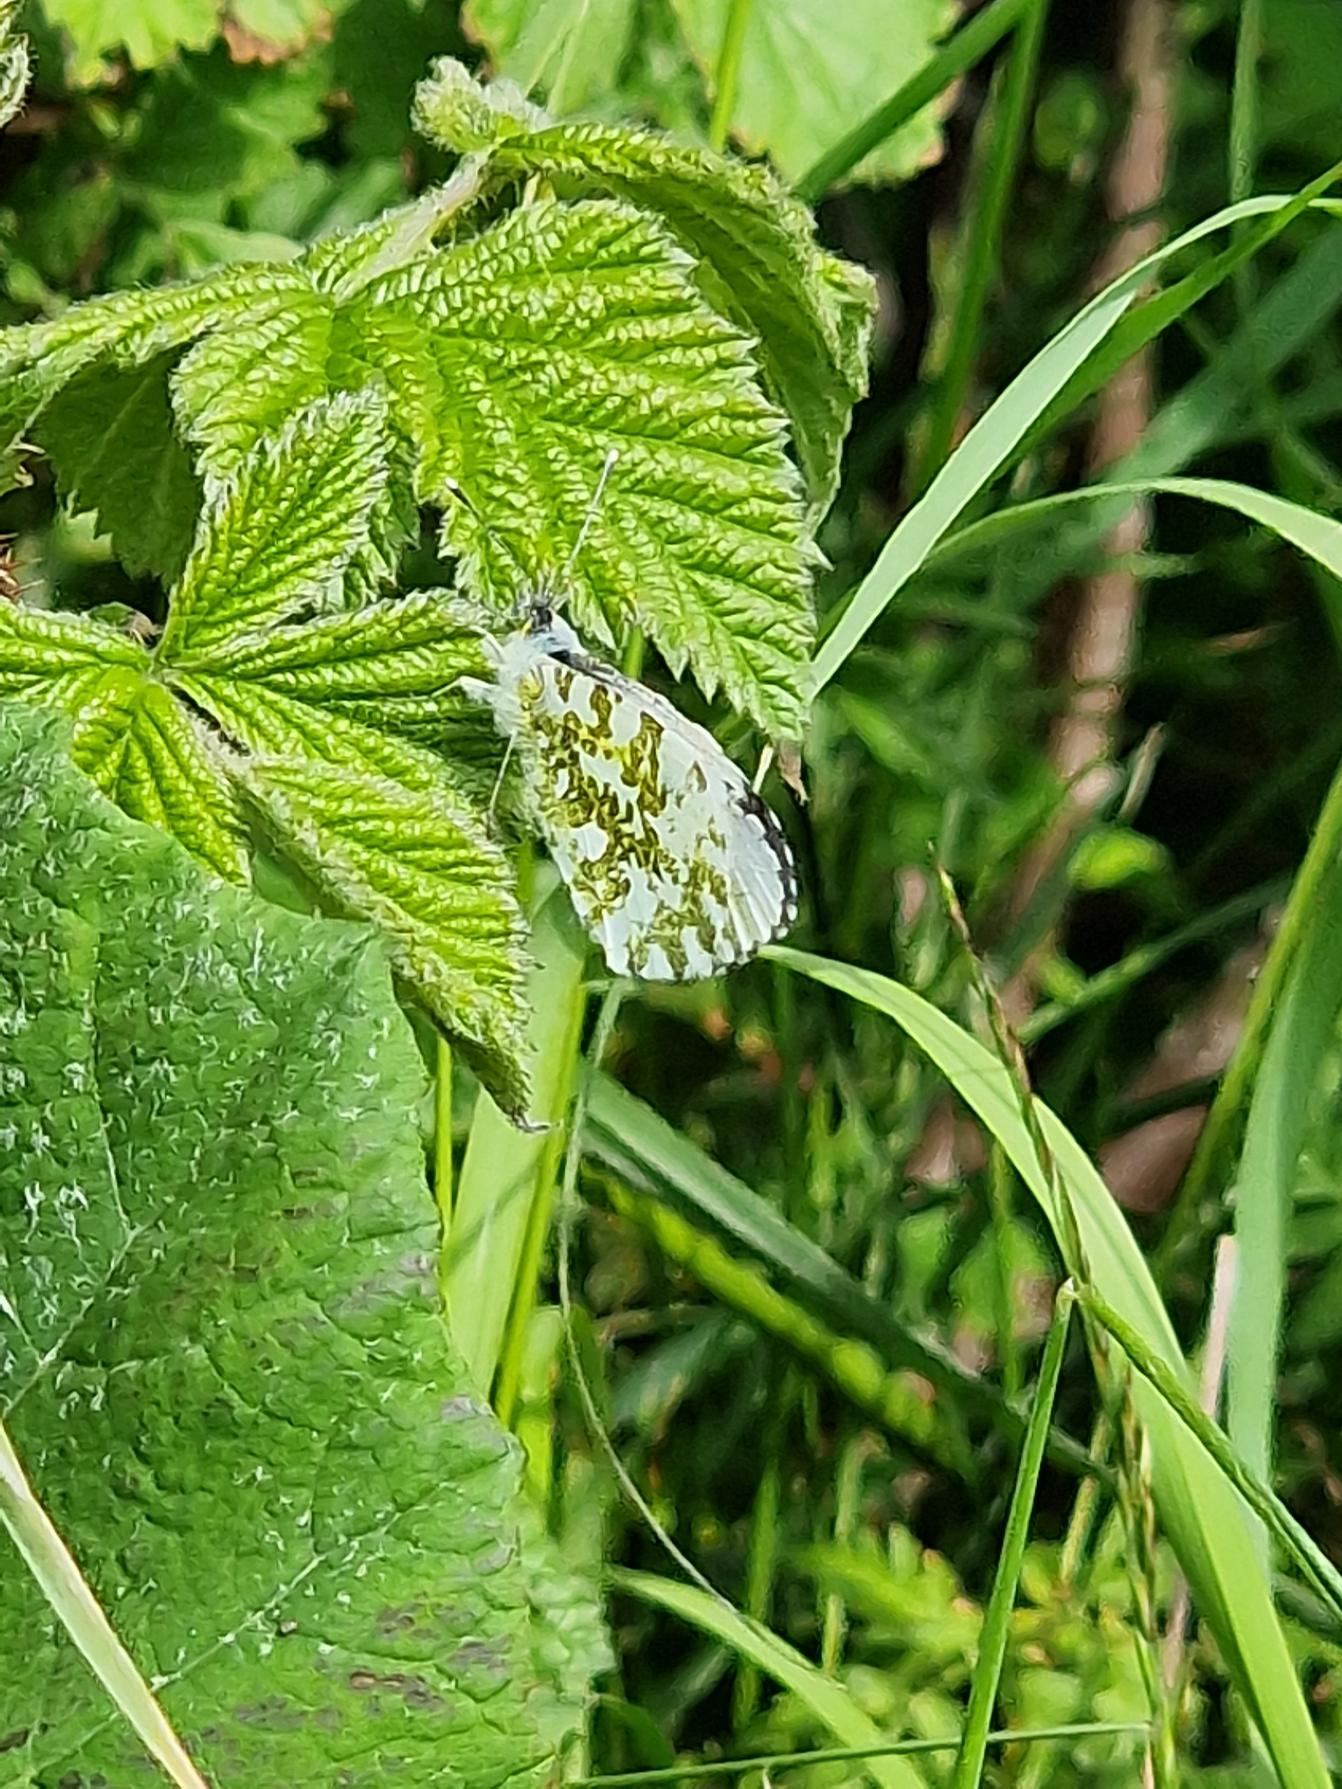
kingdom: Animalia
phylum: Arthropoda
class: Insecta
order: Lepidoptera
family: Pieridae
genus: Anthocharis
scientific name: Anthocharis cardamines
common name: Aurora
